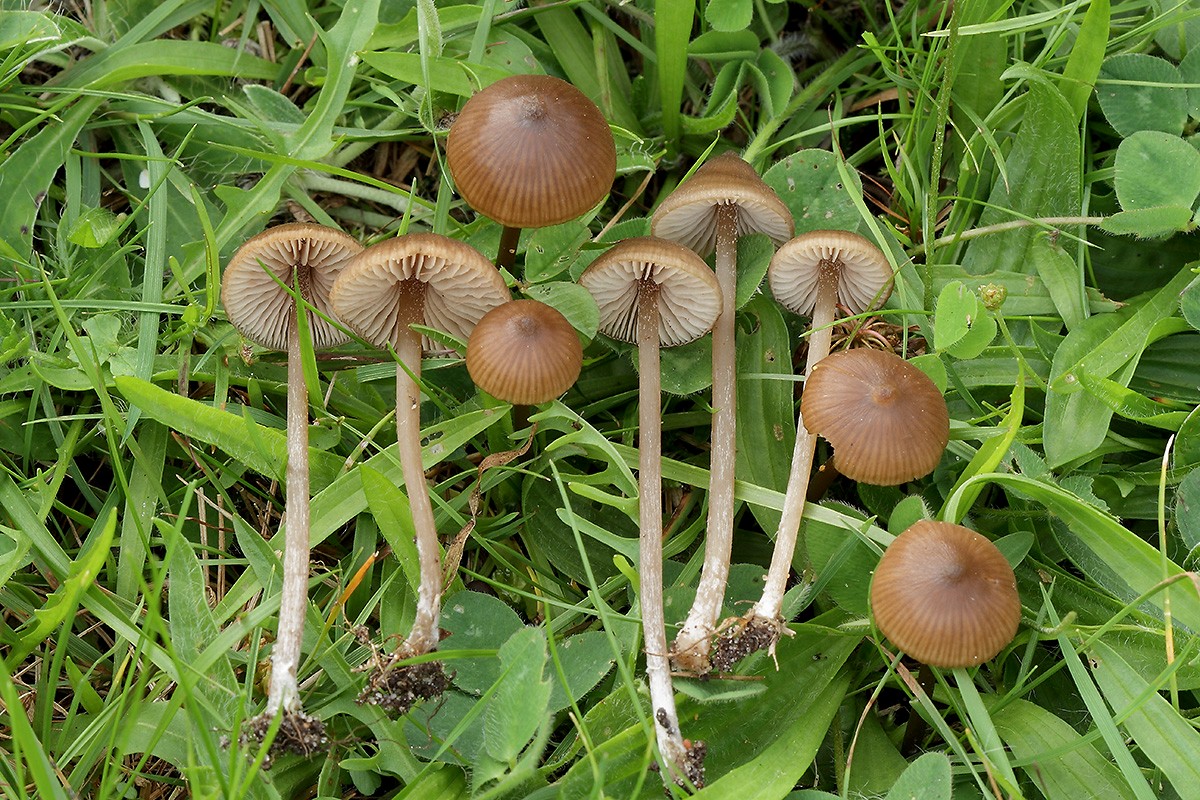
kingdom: Fungi
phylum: Basidiomycota
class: Agaricomycetes
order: Agaricales
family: Entolomataceae
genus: Entoloma
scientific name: Entoloma clandestinum
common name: tykbladet rødblad
